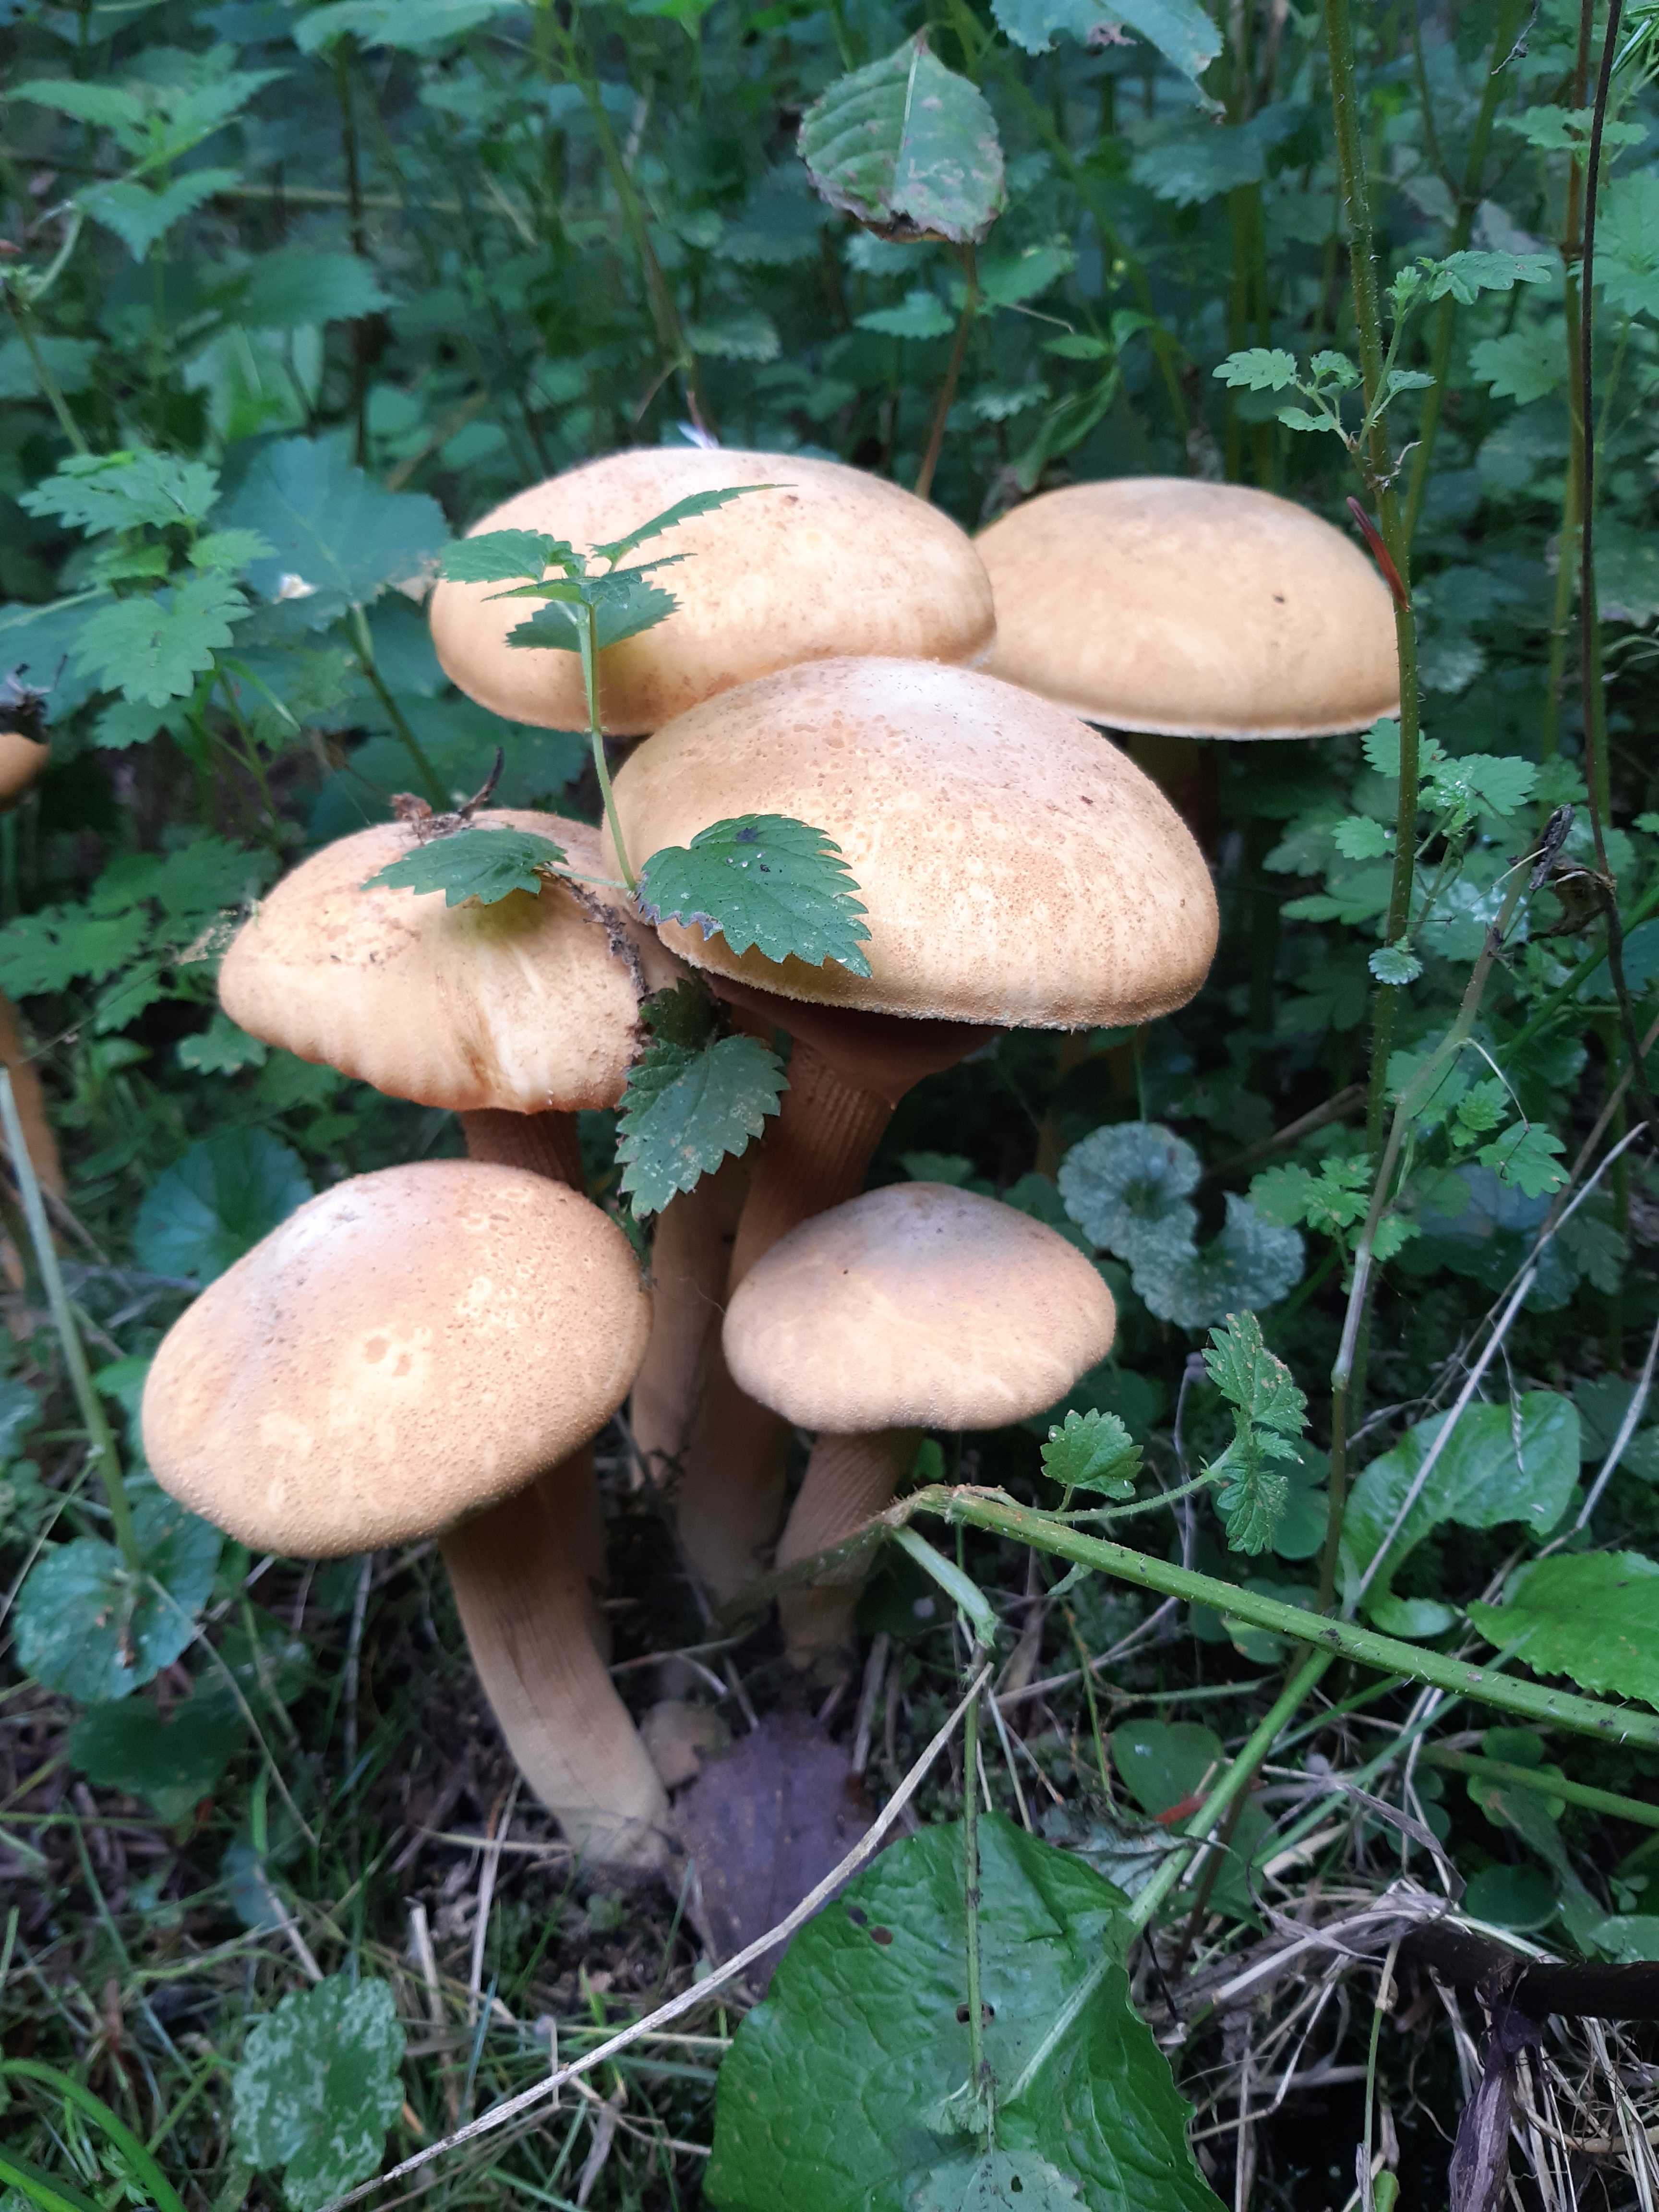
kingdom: Fungi
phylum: Basidiomycota
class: Agaricomycetes
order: Agaricales
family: Tricholomataceae
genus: Phaeolepiota
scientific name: Phaeolepiota aurea
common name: gyldenhat
